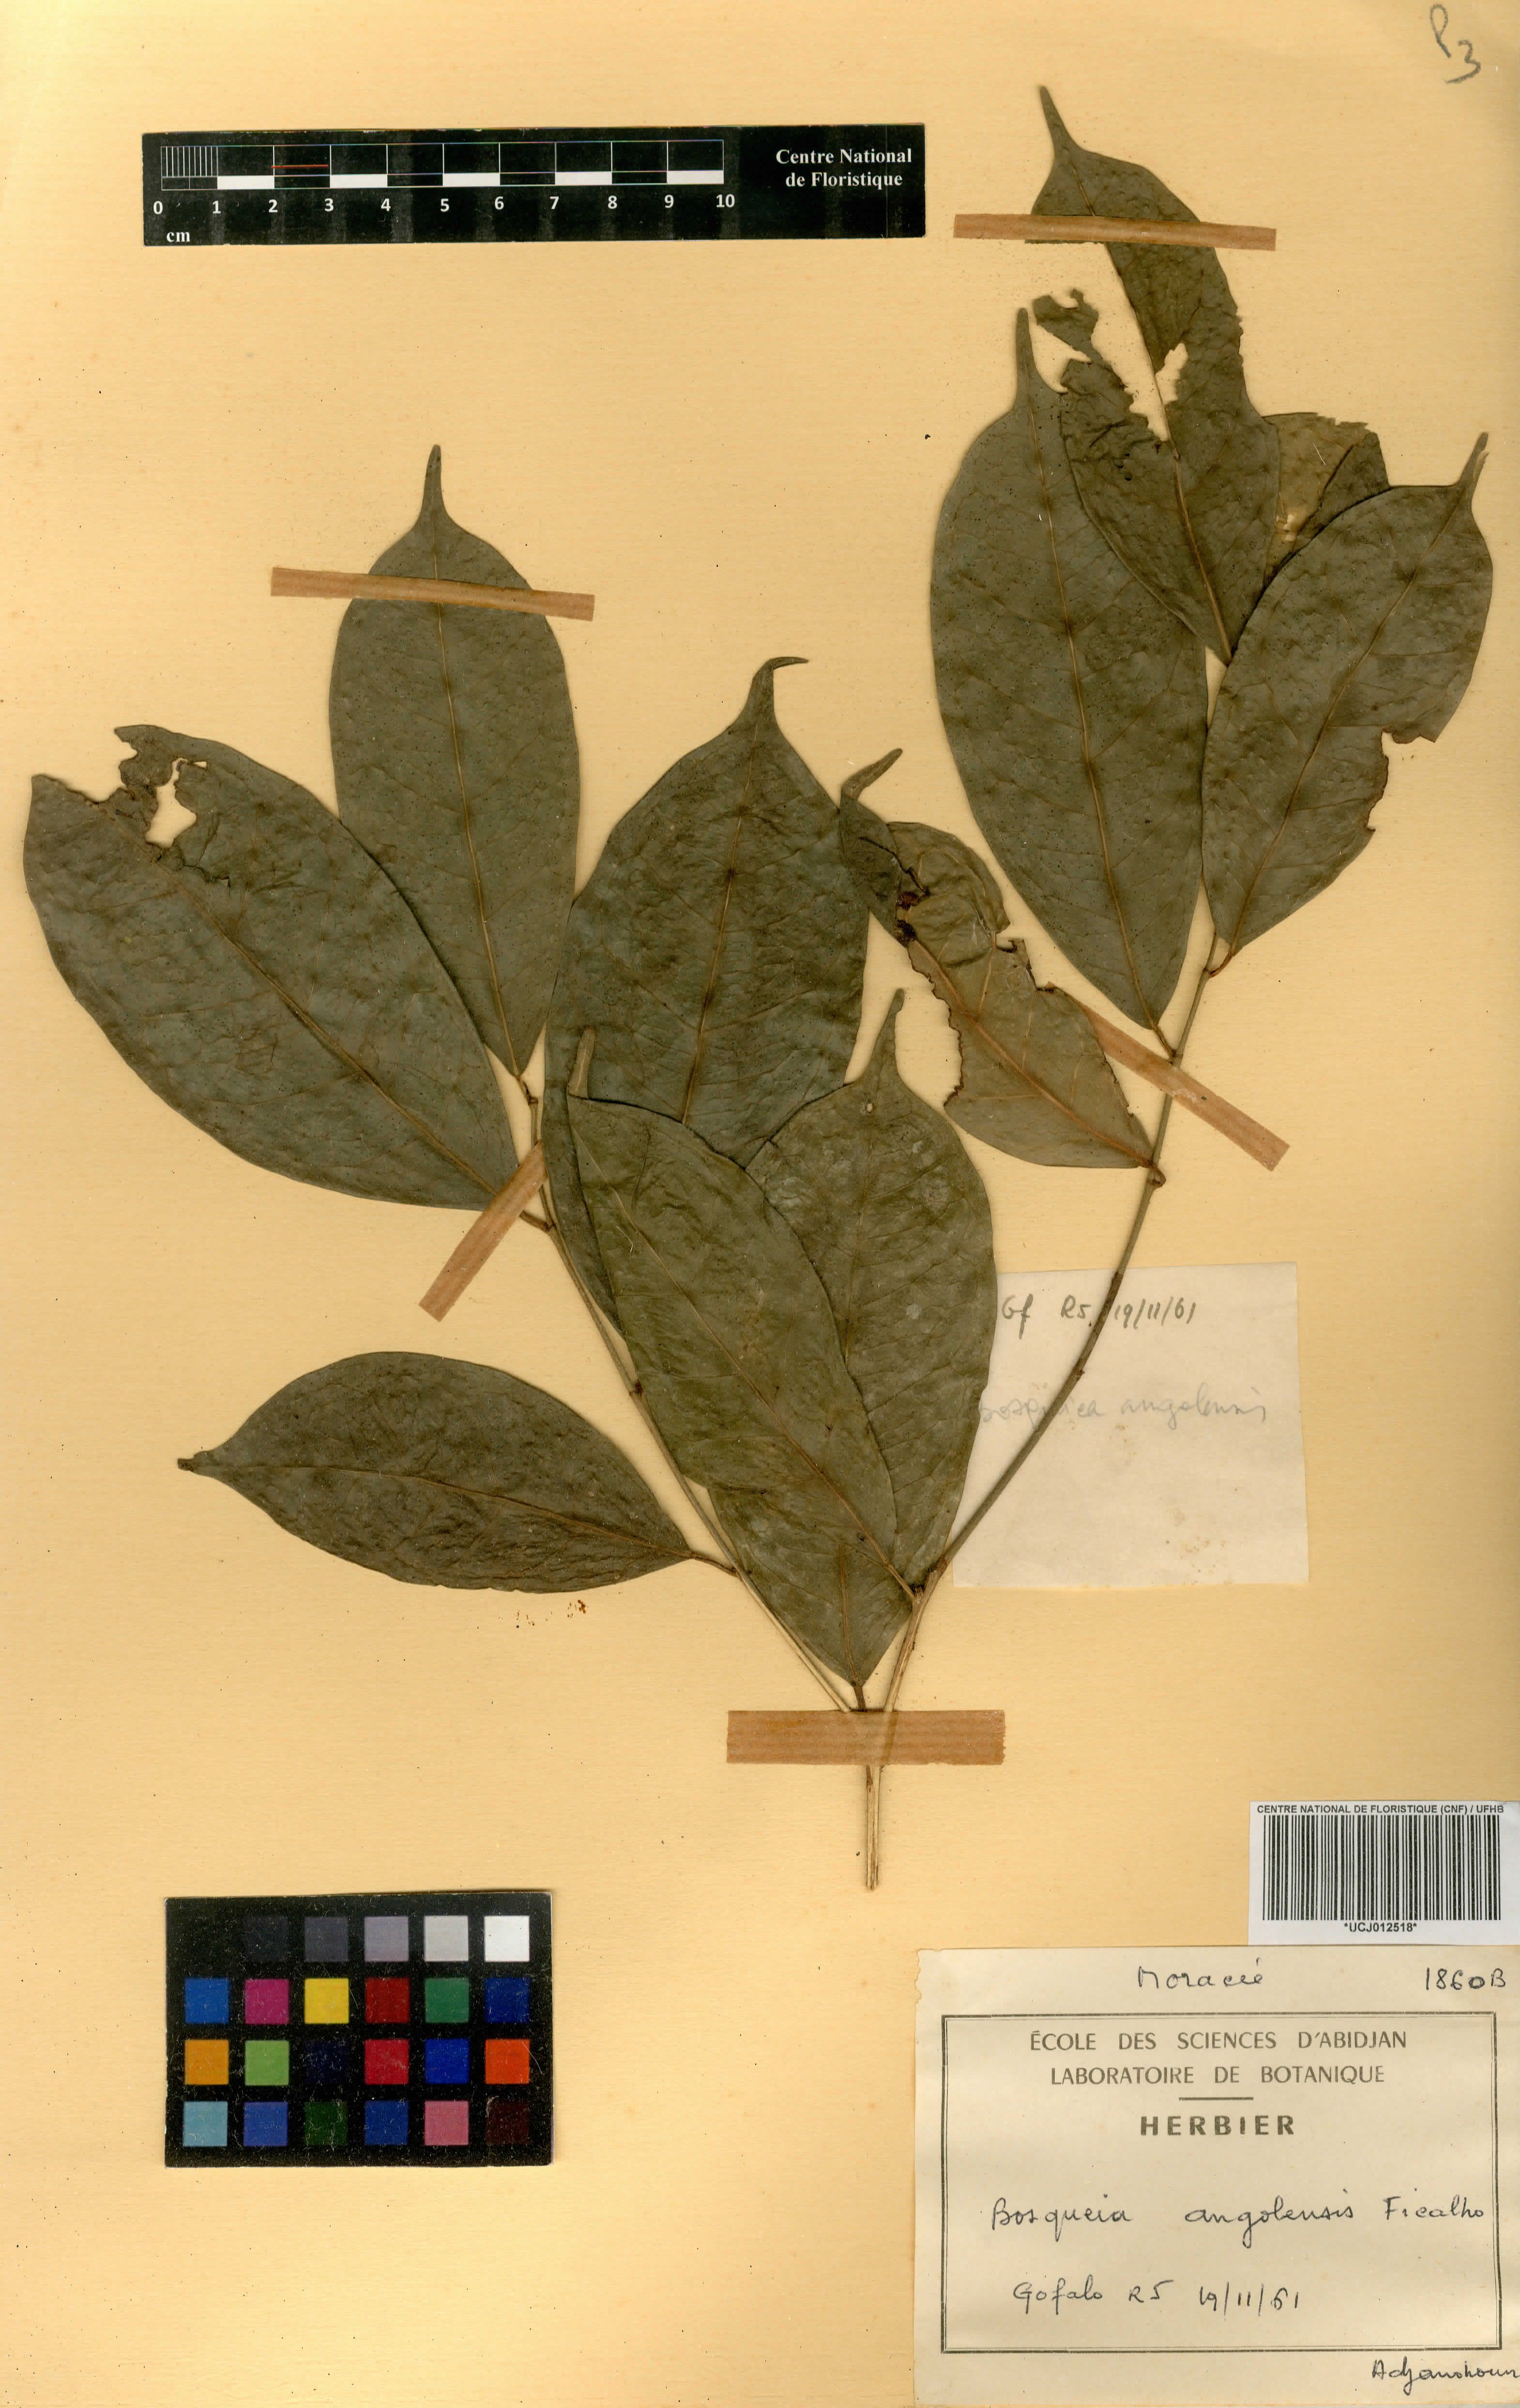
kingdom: Plantae
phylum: Tracheophyta
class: Magnoliopsida
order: Rosales
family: Moraceae
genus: Trilepisium
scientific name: Trilepisium madagascariense
